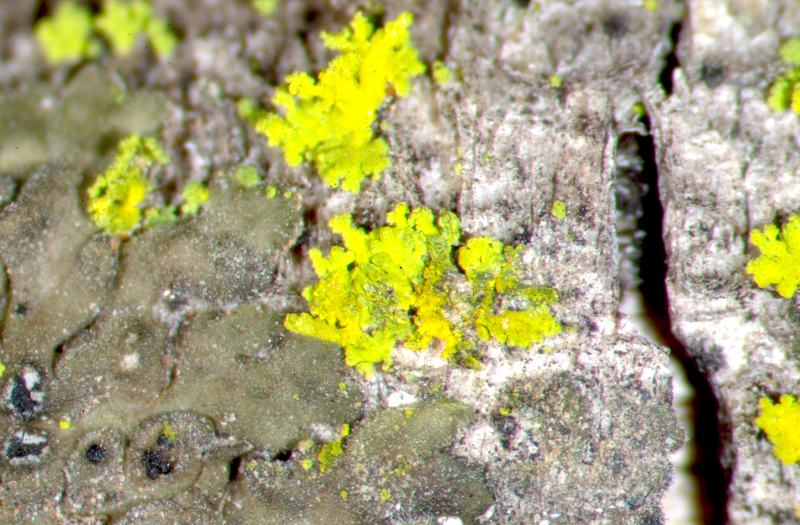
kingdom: Fungi
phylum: Ascomycota
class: Candelariomycetes
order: Candelariales
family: Candelariaceae
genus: Candelaria
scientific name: Candelaria concolor
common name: Candleflame lichen
